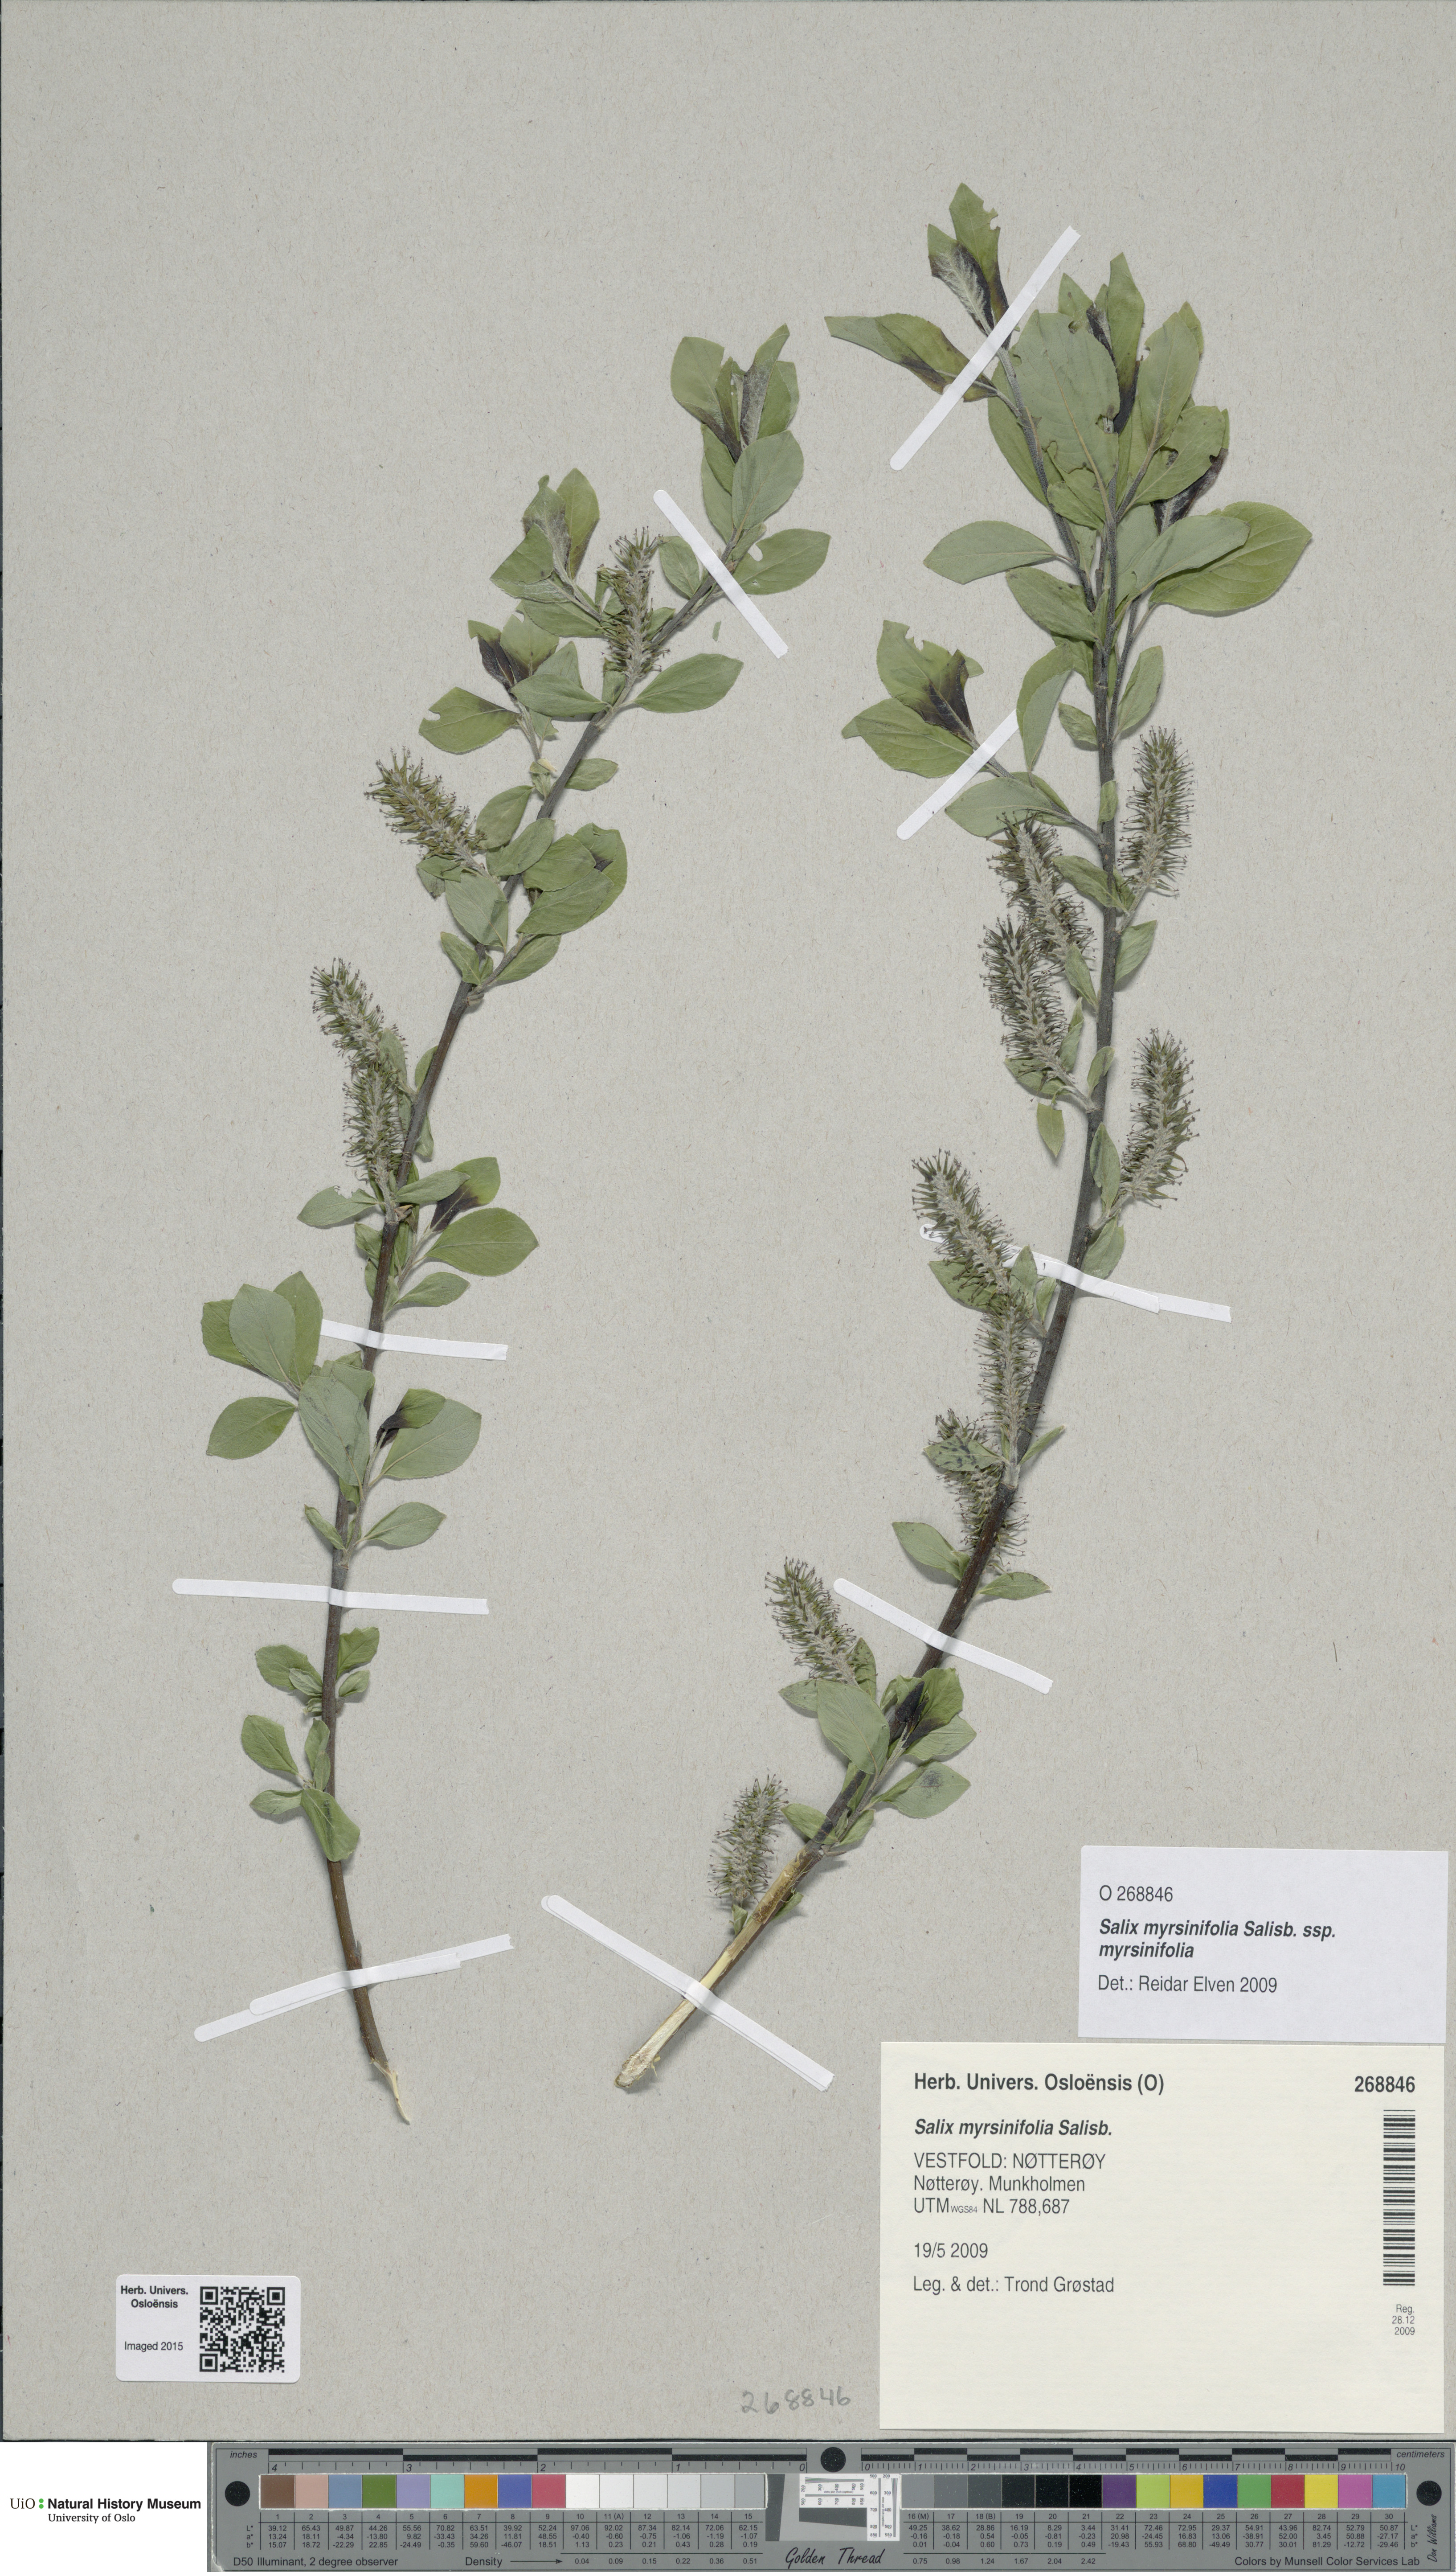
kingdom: Plantae
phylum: Tracheophyta
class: Magnoliopsida
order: Malpighiales
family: Salicaceae
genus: Salix
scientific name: Salix myrsinifolia
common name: Dark-leaved willow
